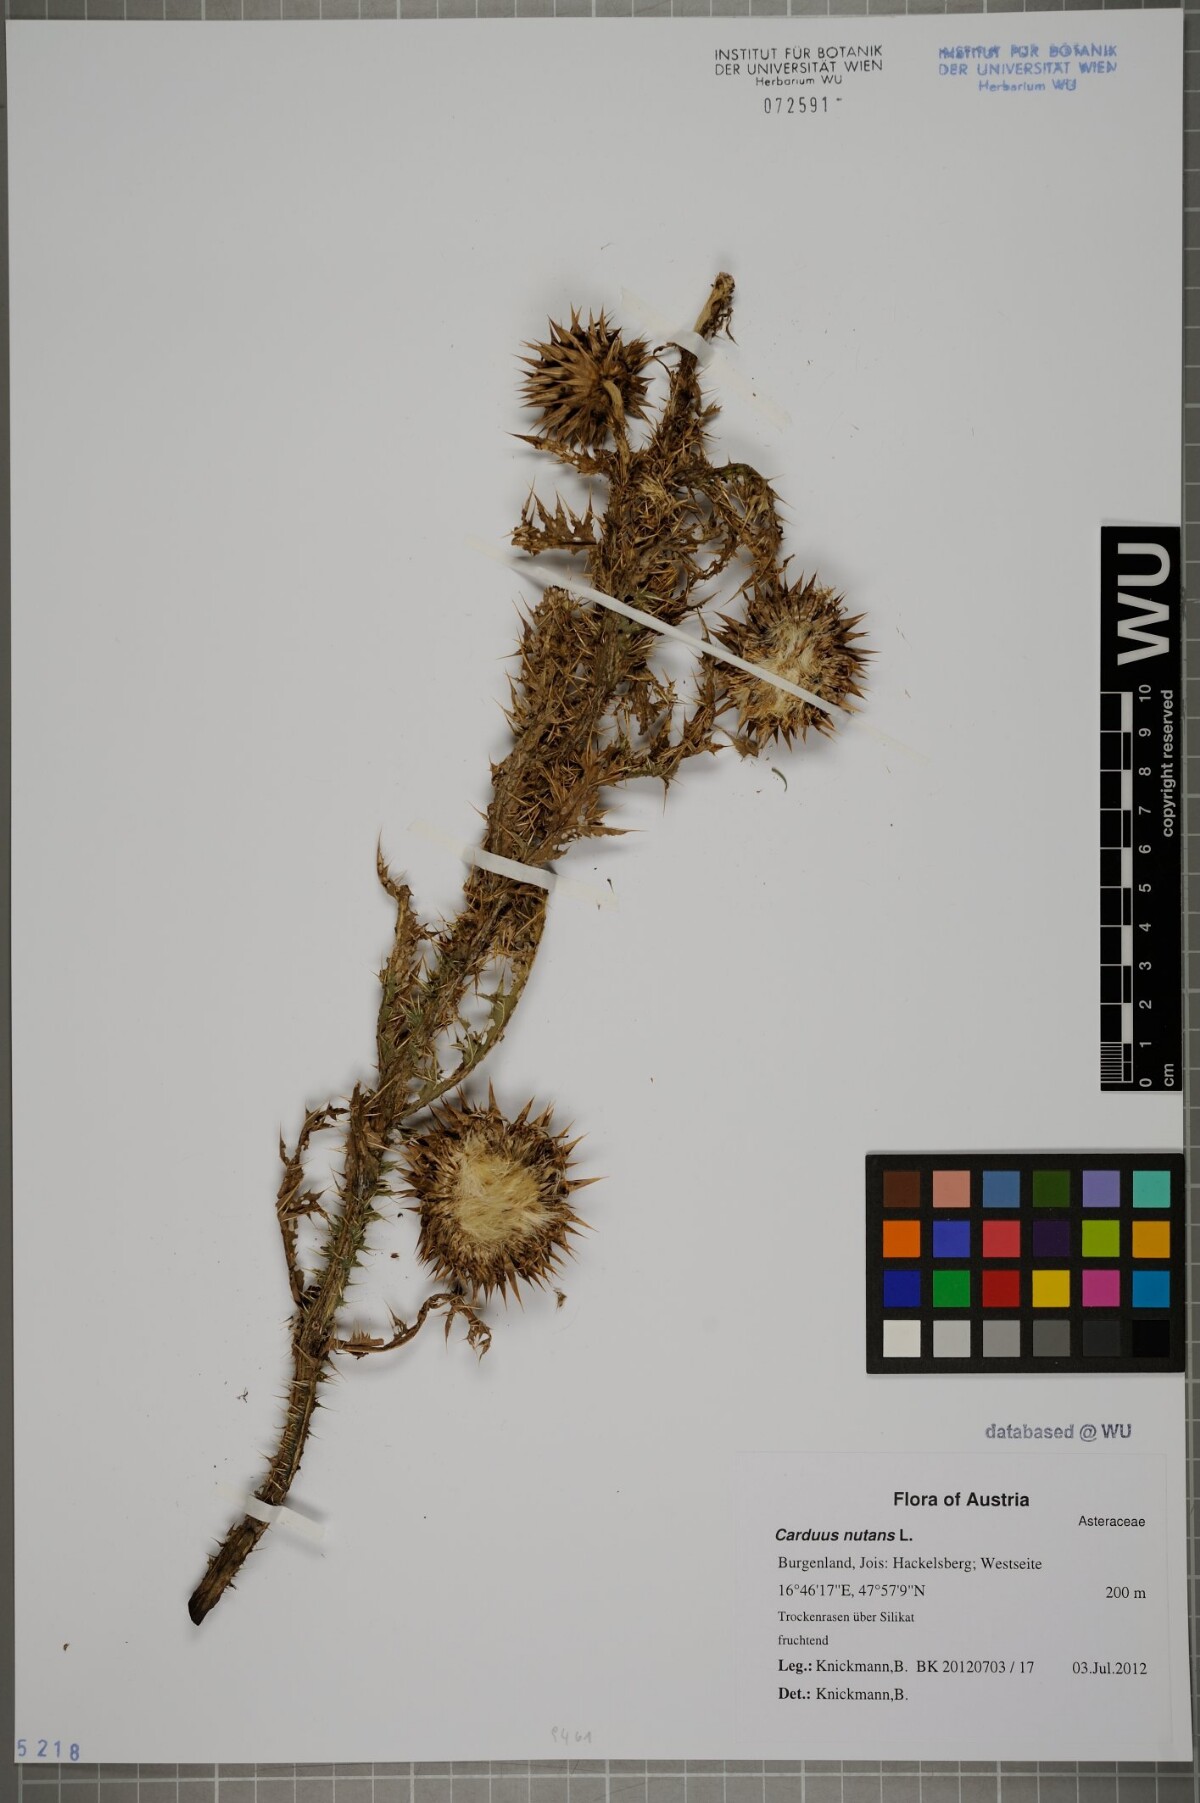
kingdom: Plantae
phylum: Tracheophyta
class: Magnoliopsida
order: Asterales
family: Asteraceae
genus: Carduus
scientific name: Carduus nutans
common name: Musk thistle
